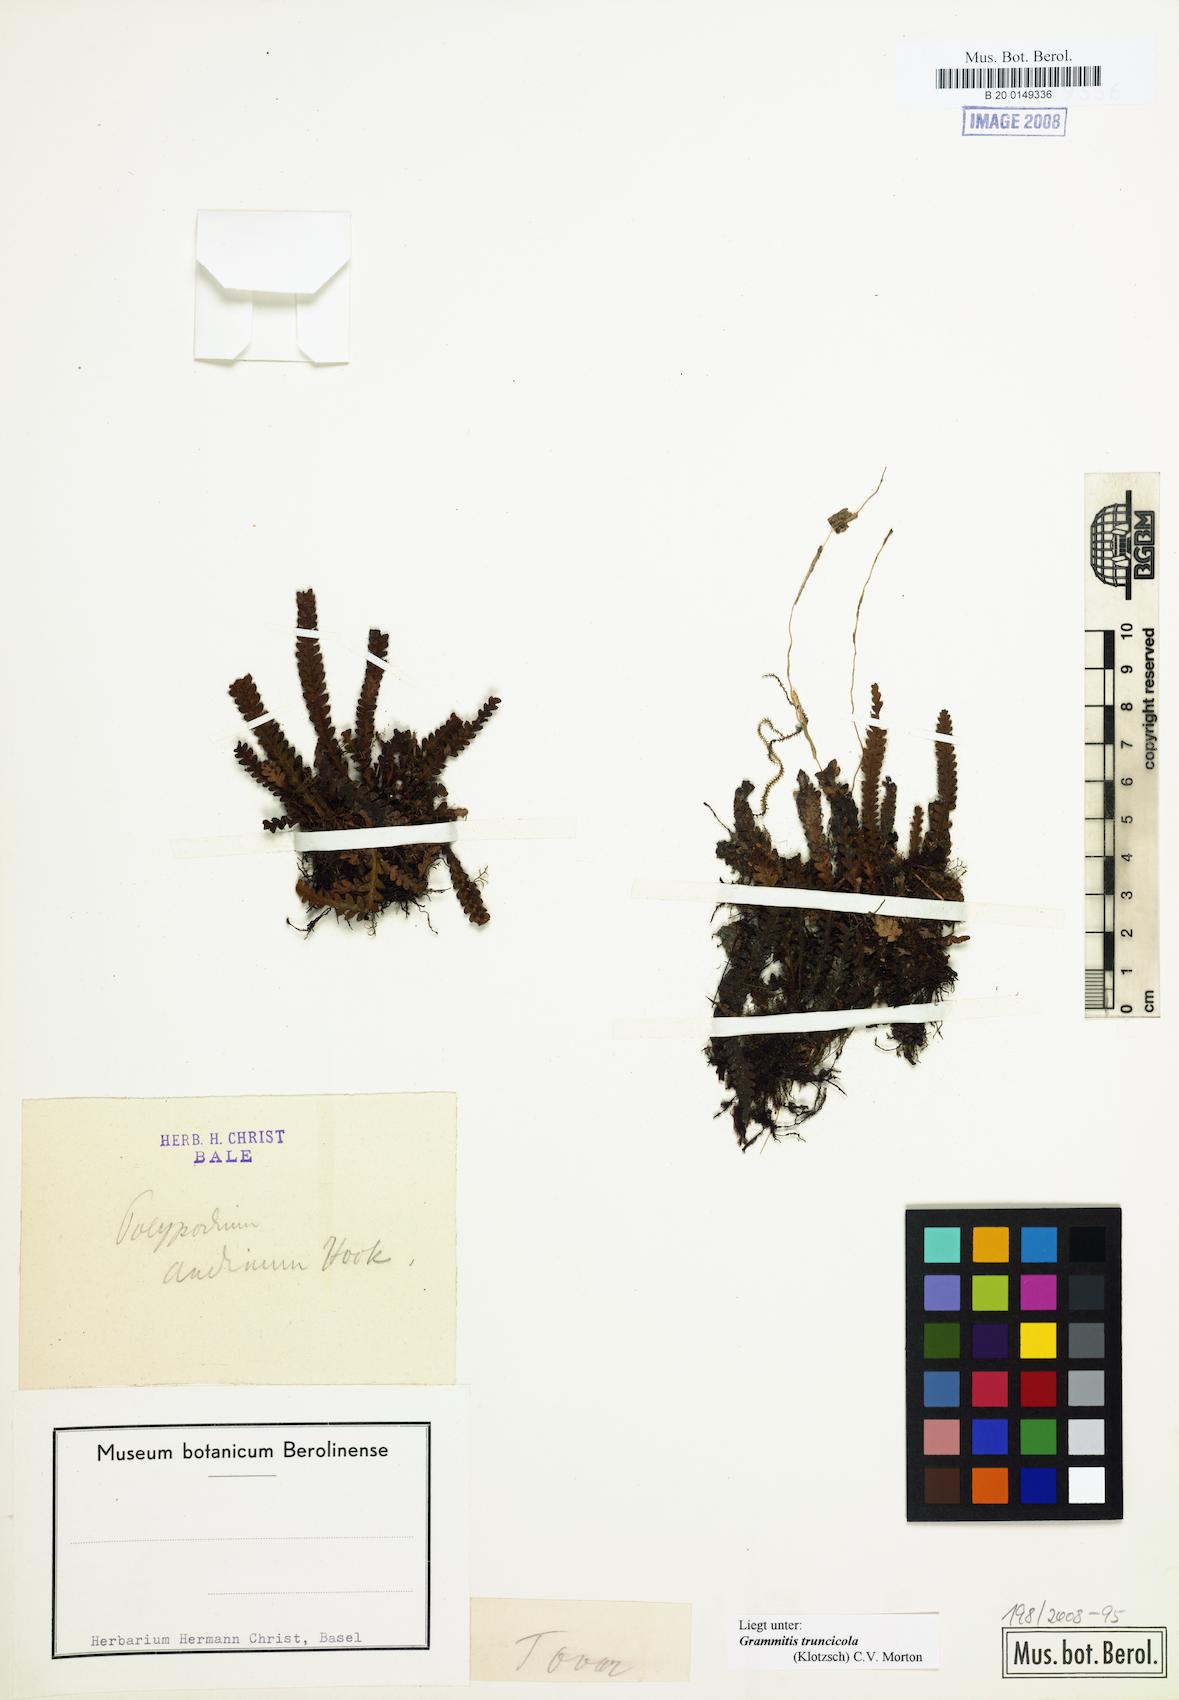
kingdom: Plantae
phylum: Tracheophyta
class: Polypodiopsida
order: Polypodiales
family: Polypodiaceae
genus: Moranopteris
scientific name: Moranopteris truncicola
